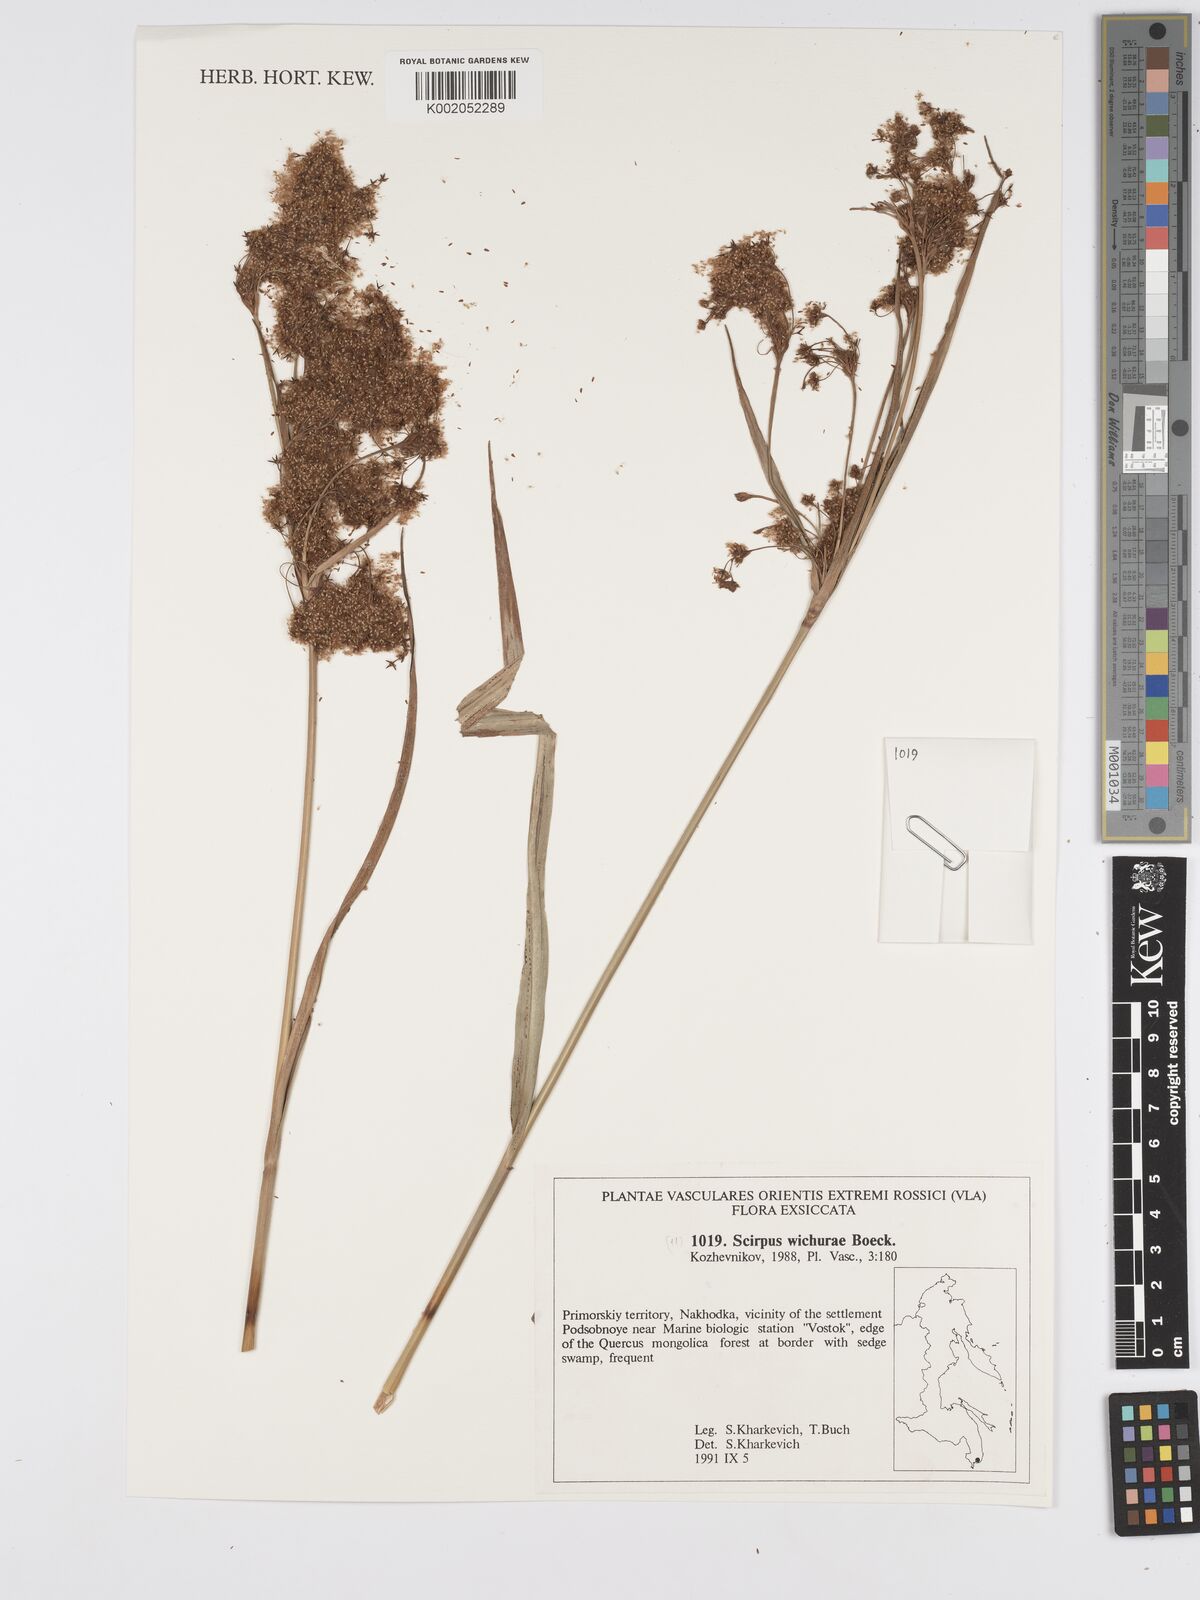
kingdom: Plantae
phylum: Tracheophyta
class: Liliopsida
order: Poales
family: Cyperaceae
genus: Scirpus
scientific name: Scirpus lineatus
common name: Drooping bulrush
